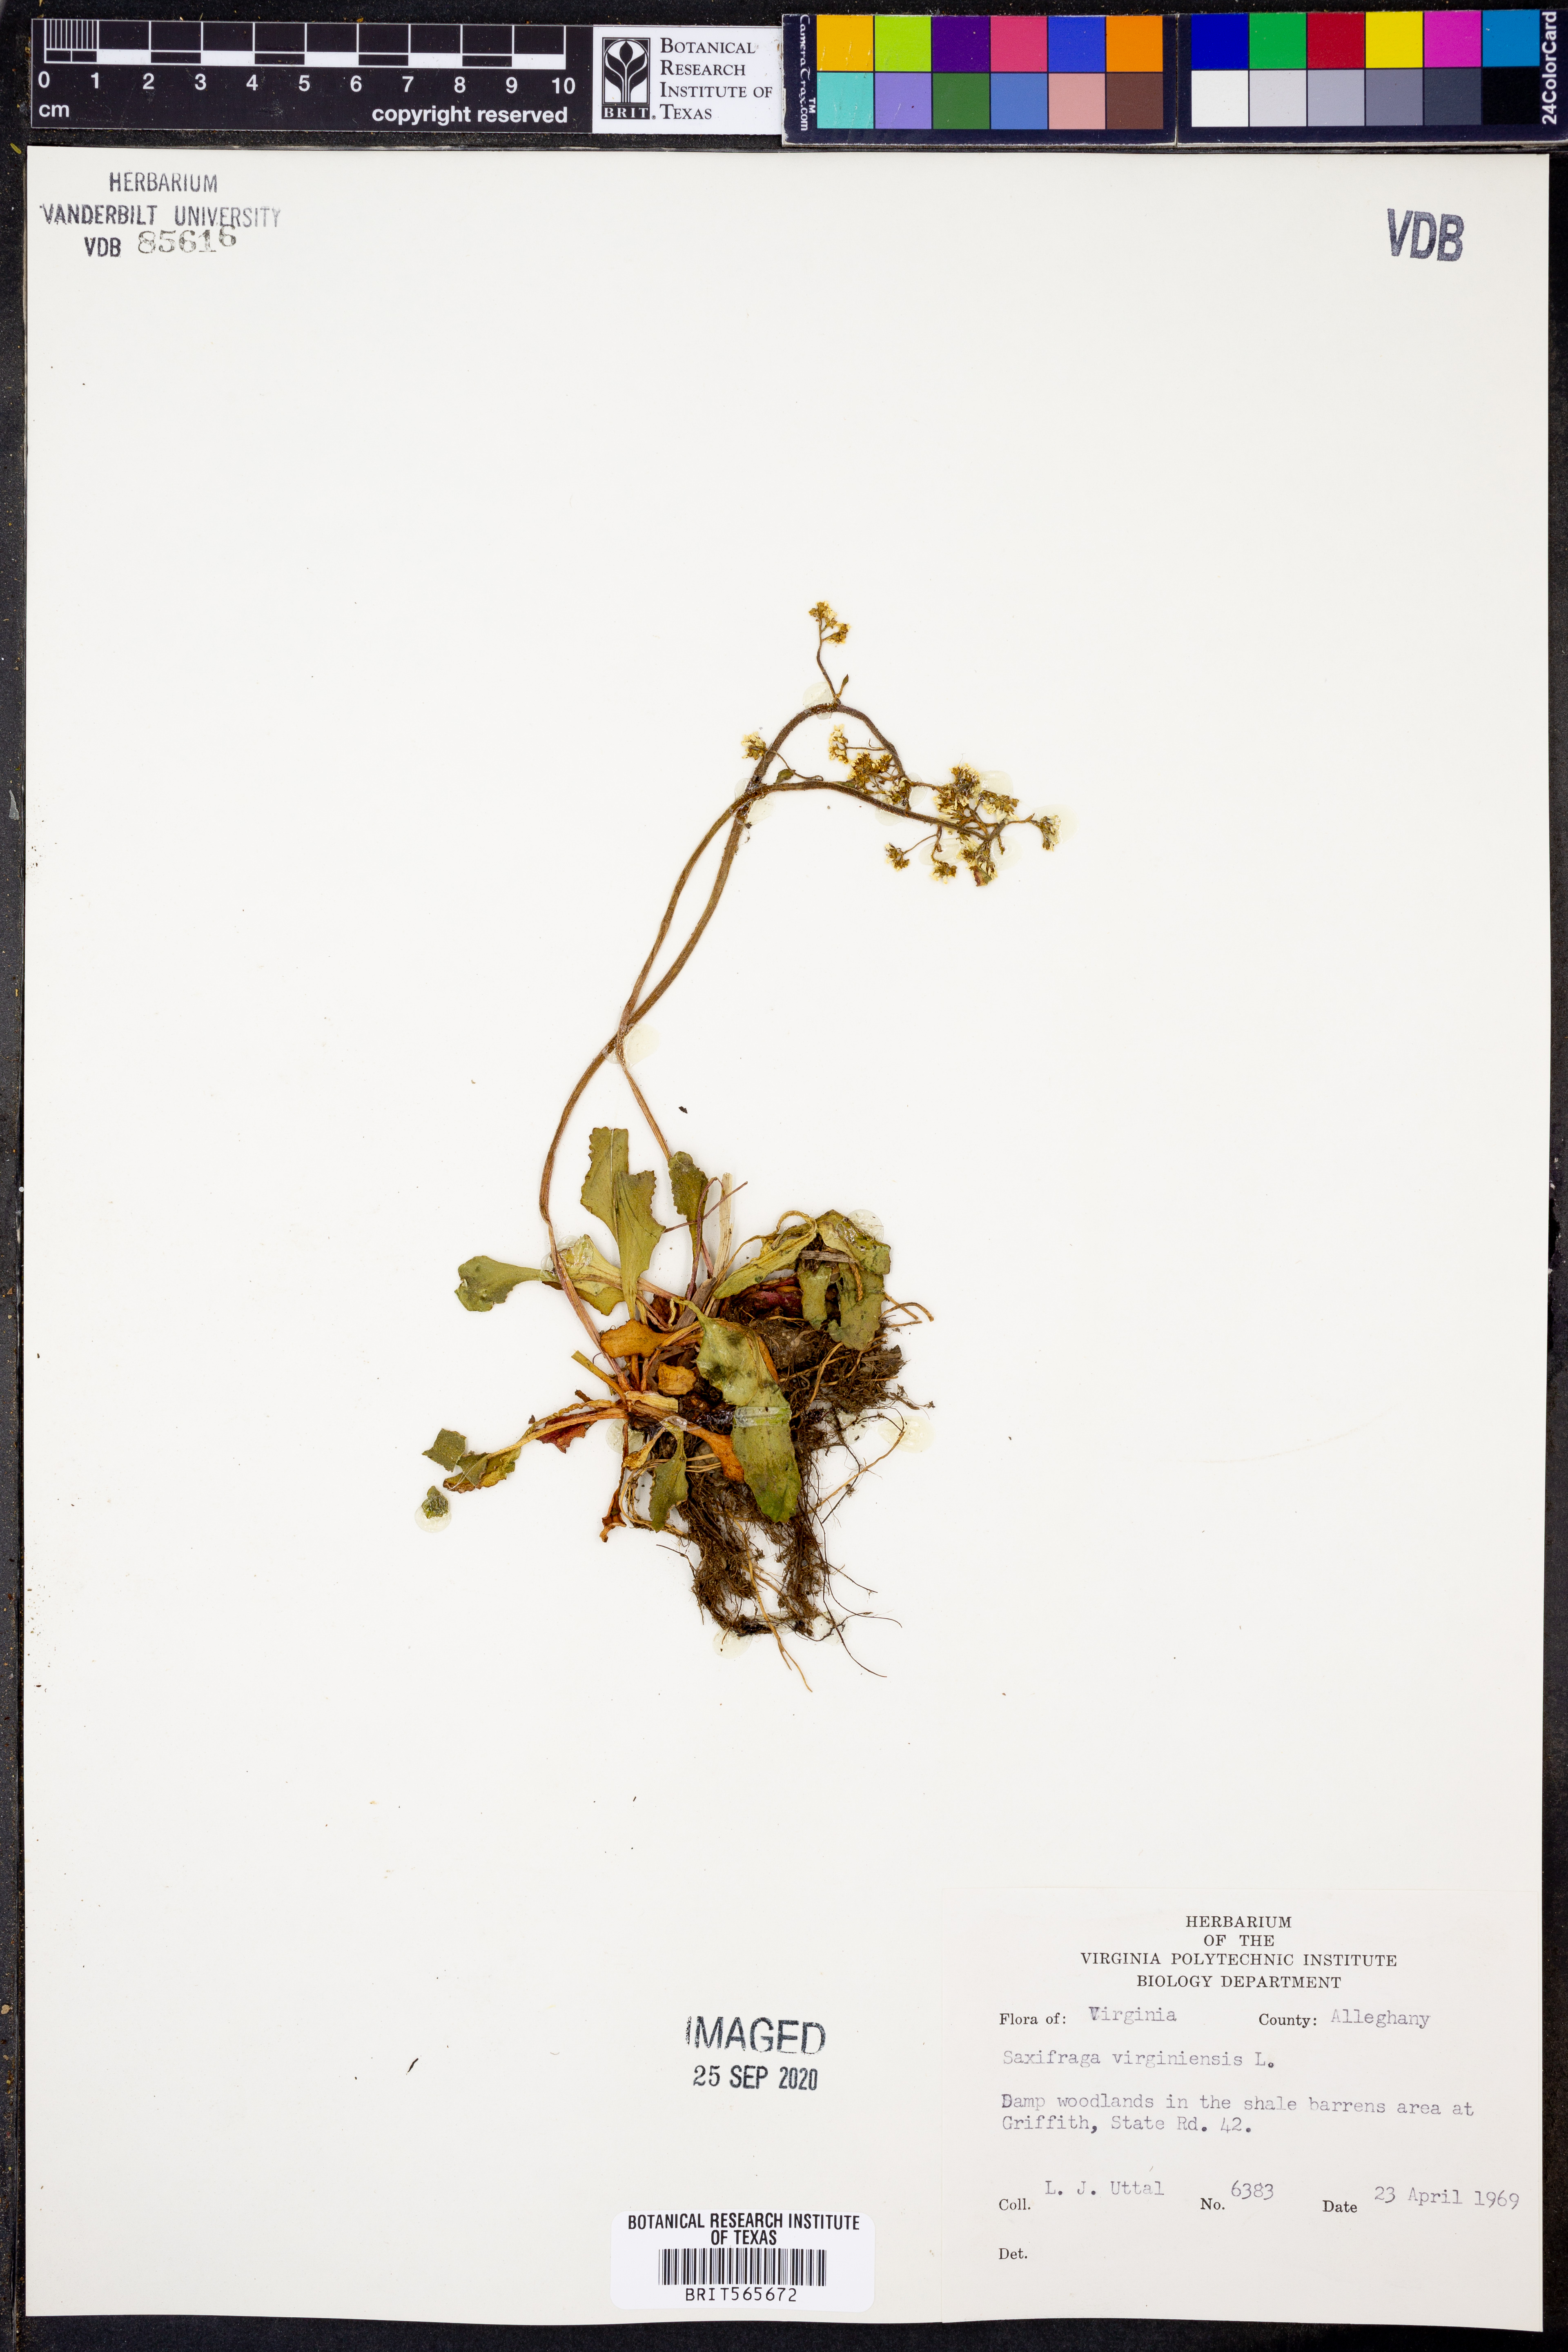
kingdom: Plantae
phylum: Tracheophyta
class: Magnoliopsida
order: Saxifragales
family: Saxifragaceae
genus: Micranthes
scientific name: Micranthes virginiensis
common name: Early saxifrage
